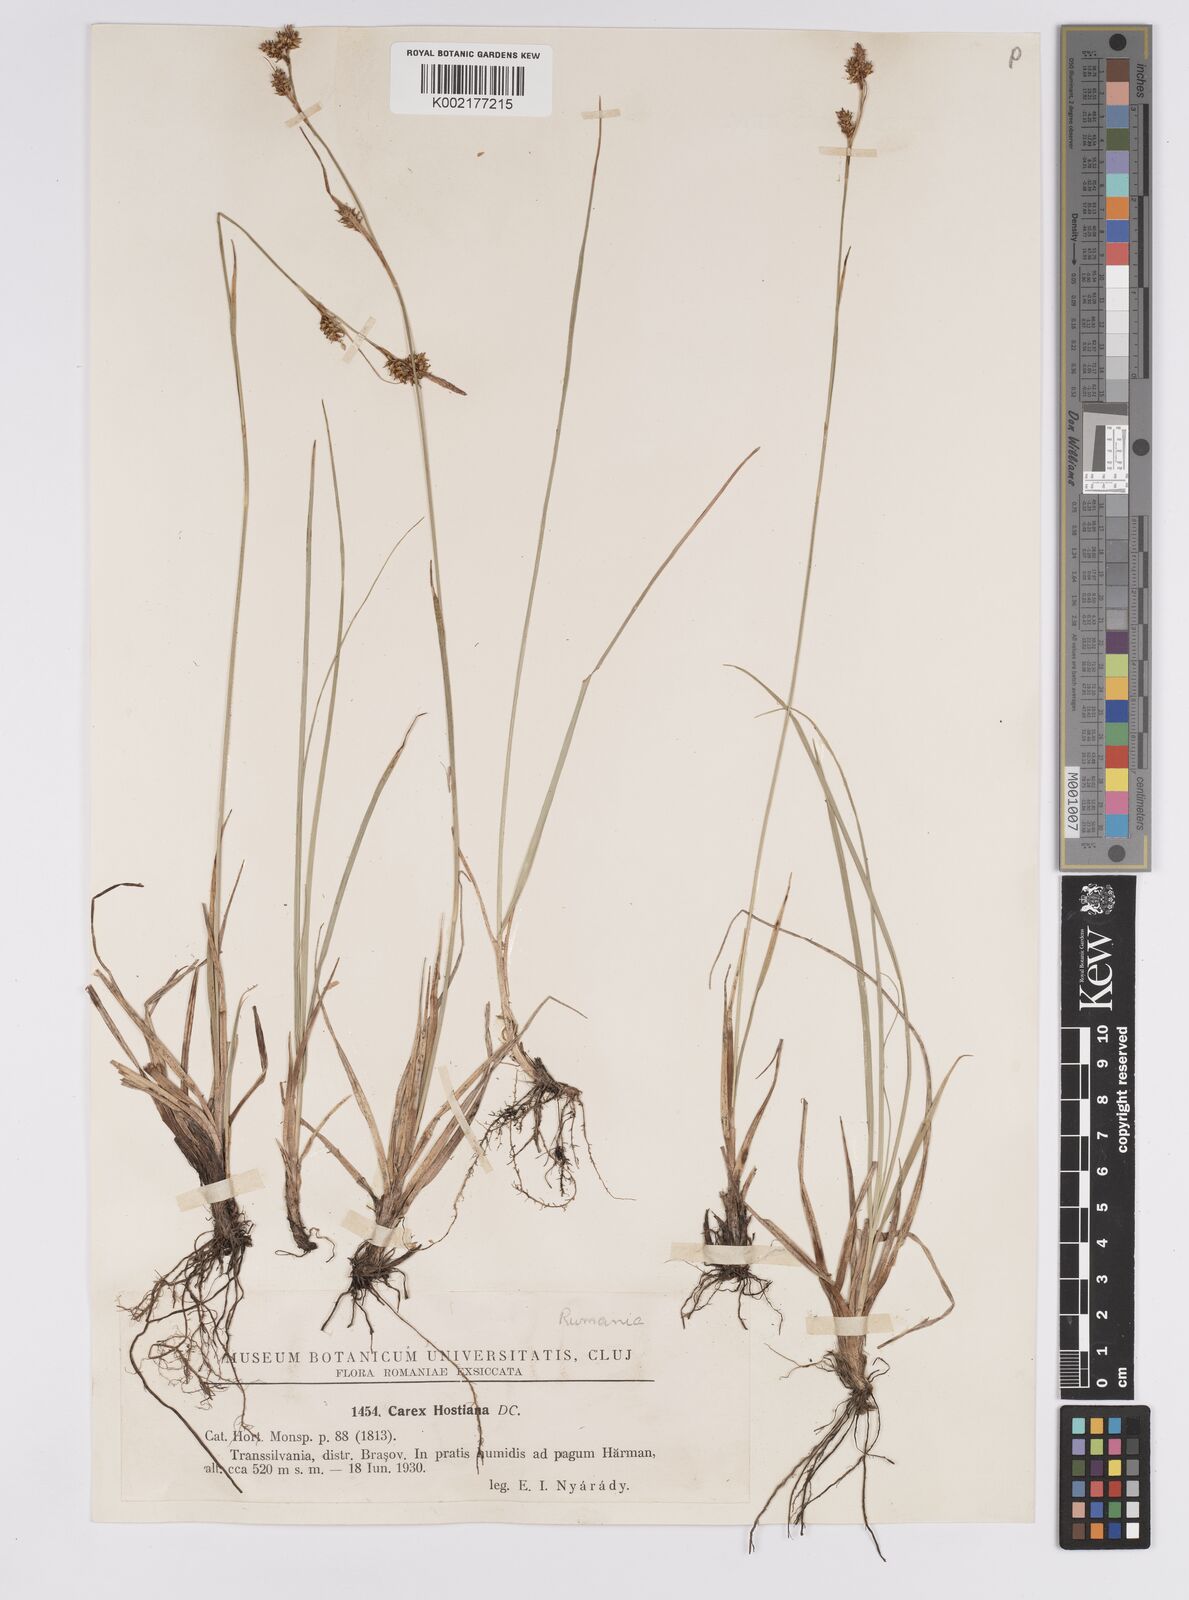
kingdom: Plantae
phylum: Tracheophyta
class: Liliopsida
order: Poales
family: Cyperaceae
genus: Carex
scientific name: Carex hostiana
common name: Tawny sedge
